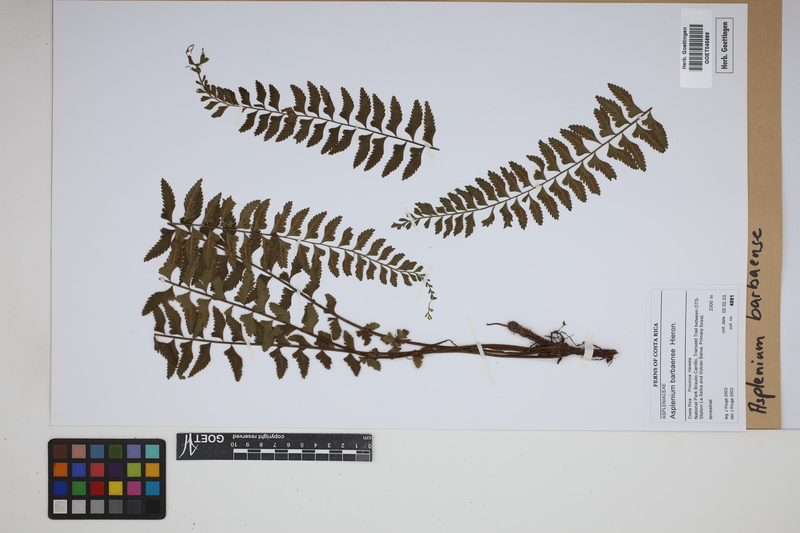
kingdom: Plantae
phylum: Tracheophyta
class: Polypodiopsida
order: Polypodiales
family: Aspleniaceae
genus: Asplenium
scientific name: Asplenium barbaense
